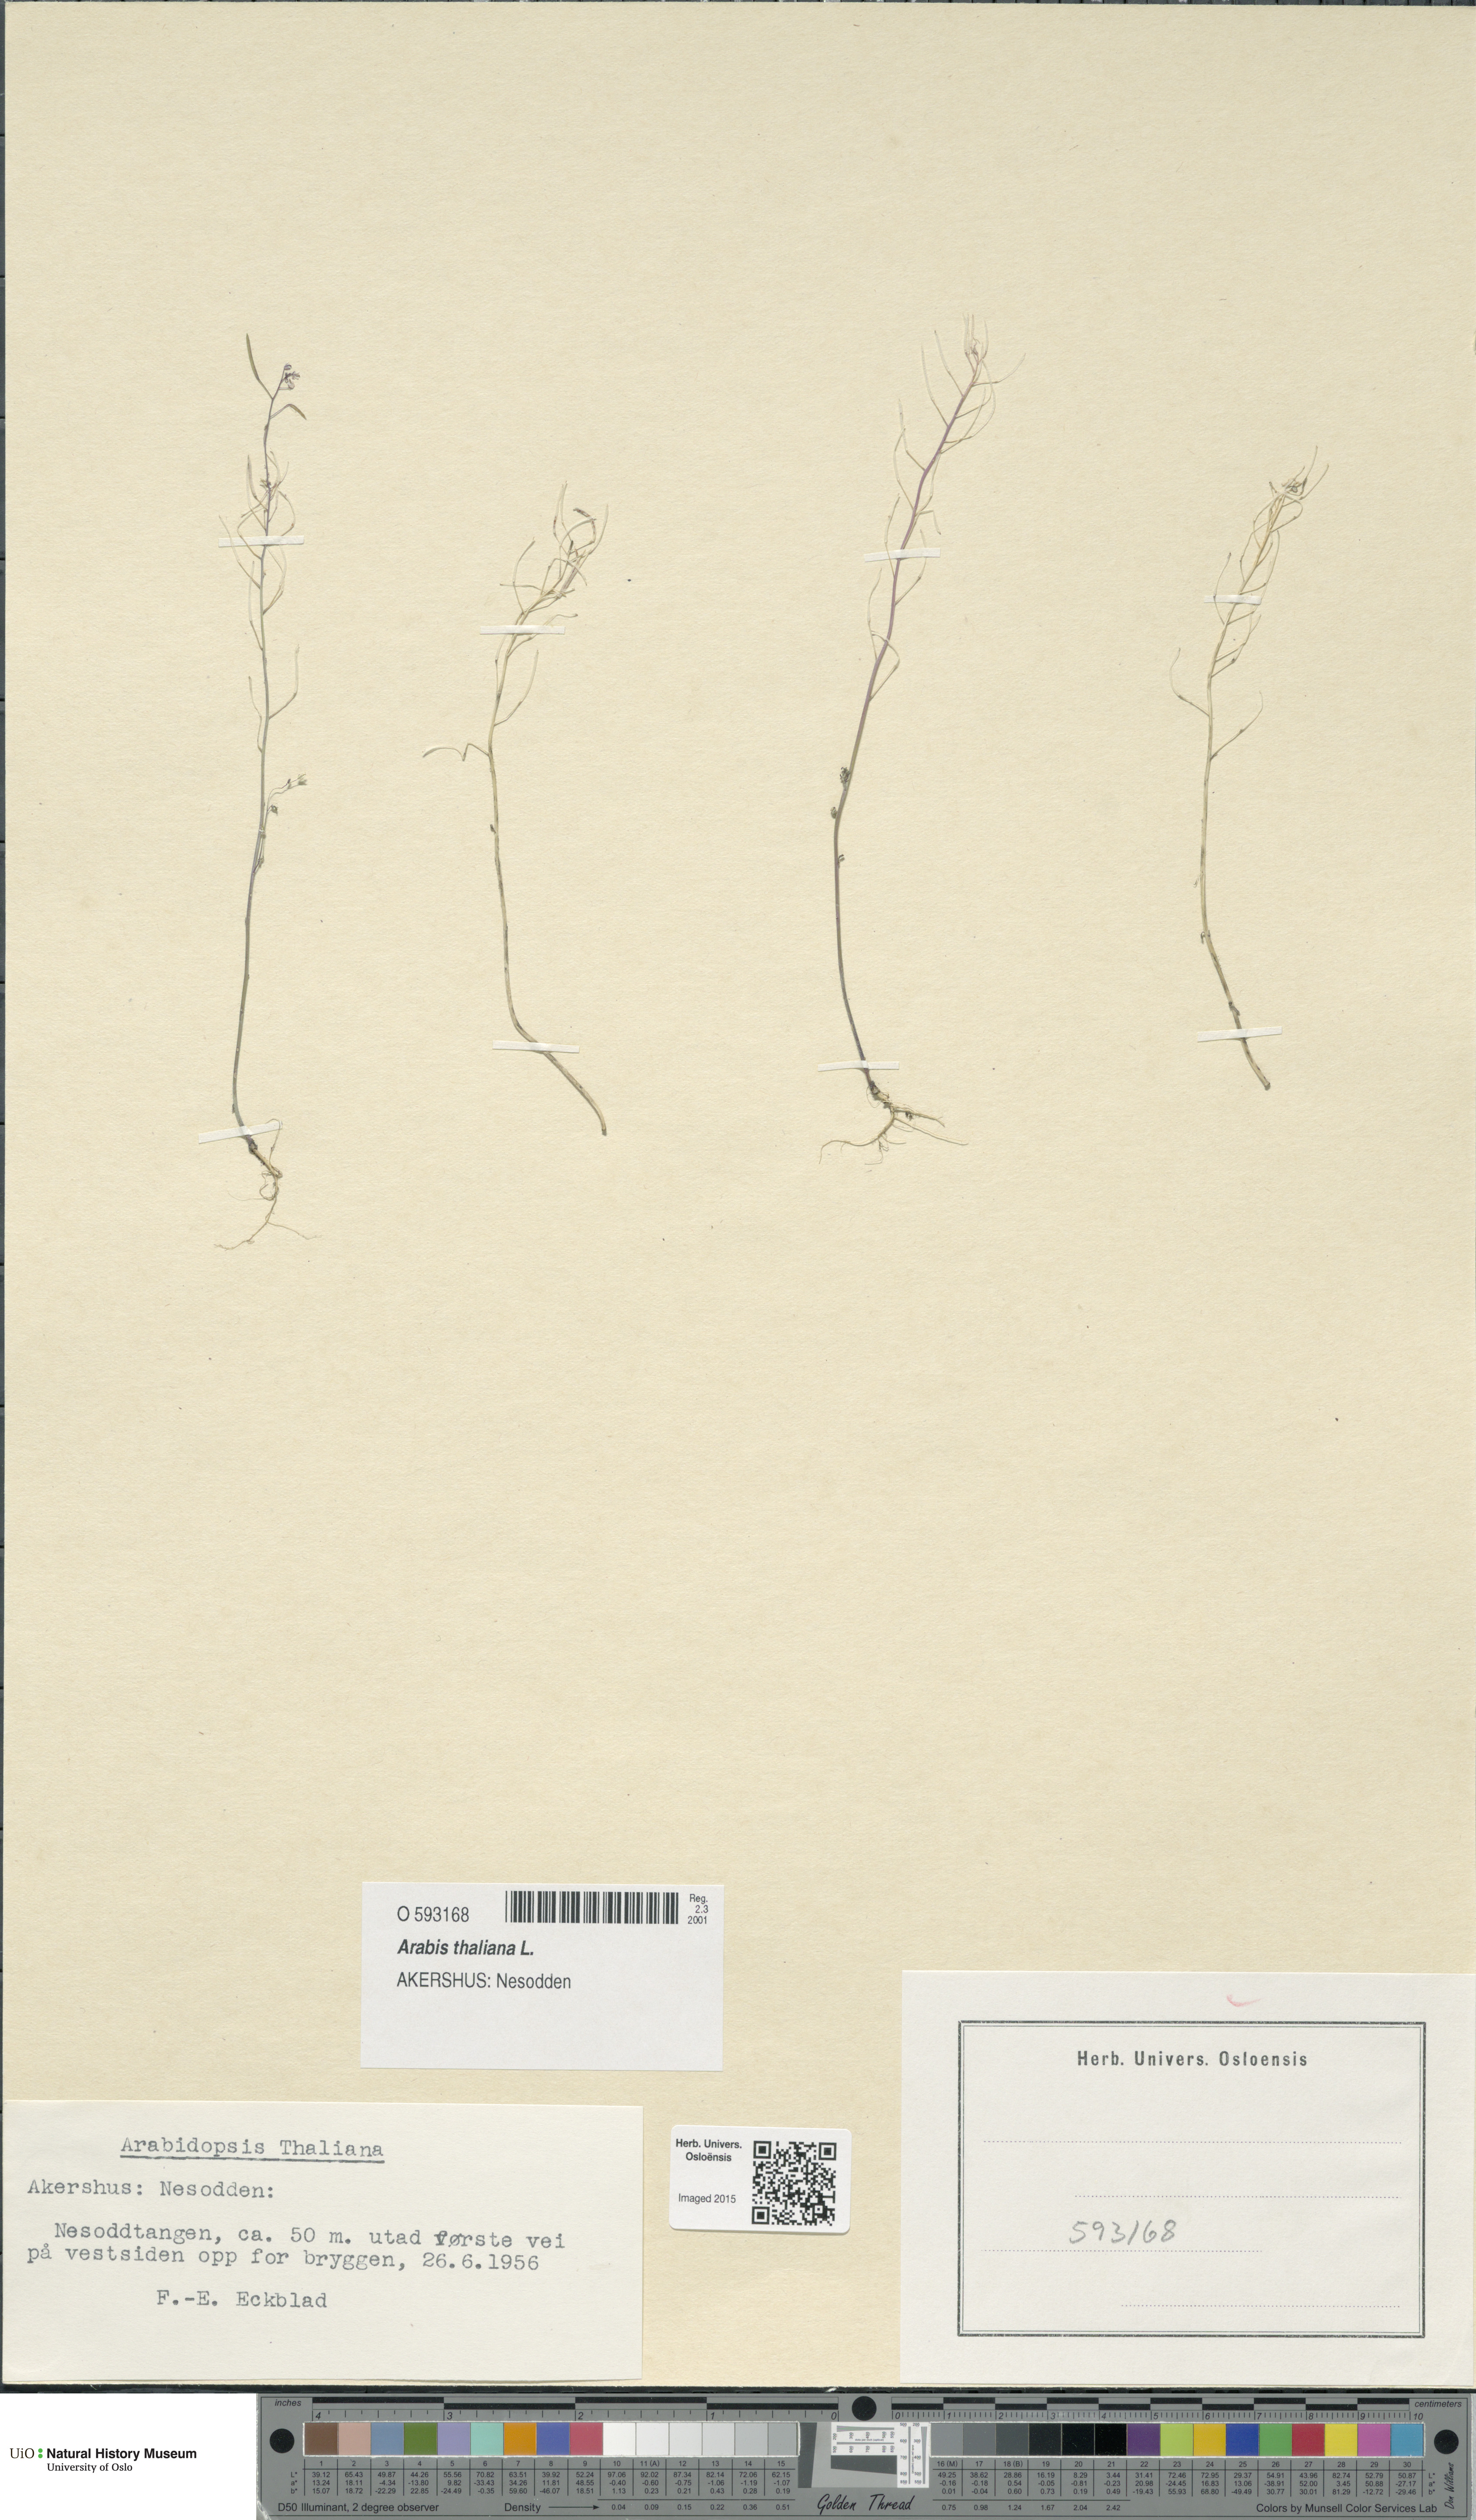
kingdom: Plantae
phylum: Tracheophyta
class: Magnoliopsida
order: Brassicales
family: Brassicaceae
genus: Arabidopsis
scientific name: Arabidopsis thaliana
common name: Thale cress
